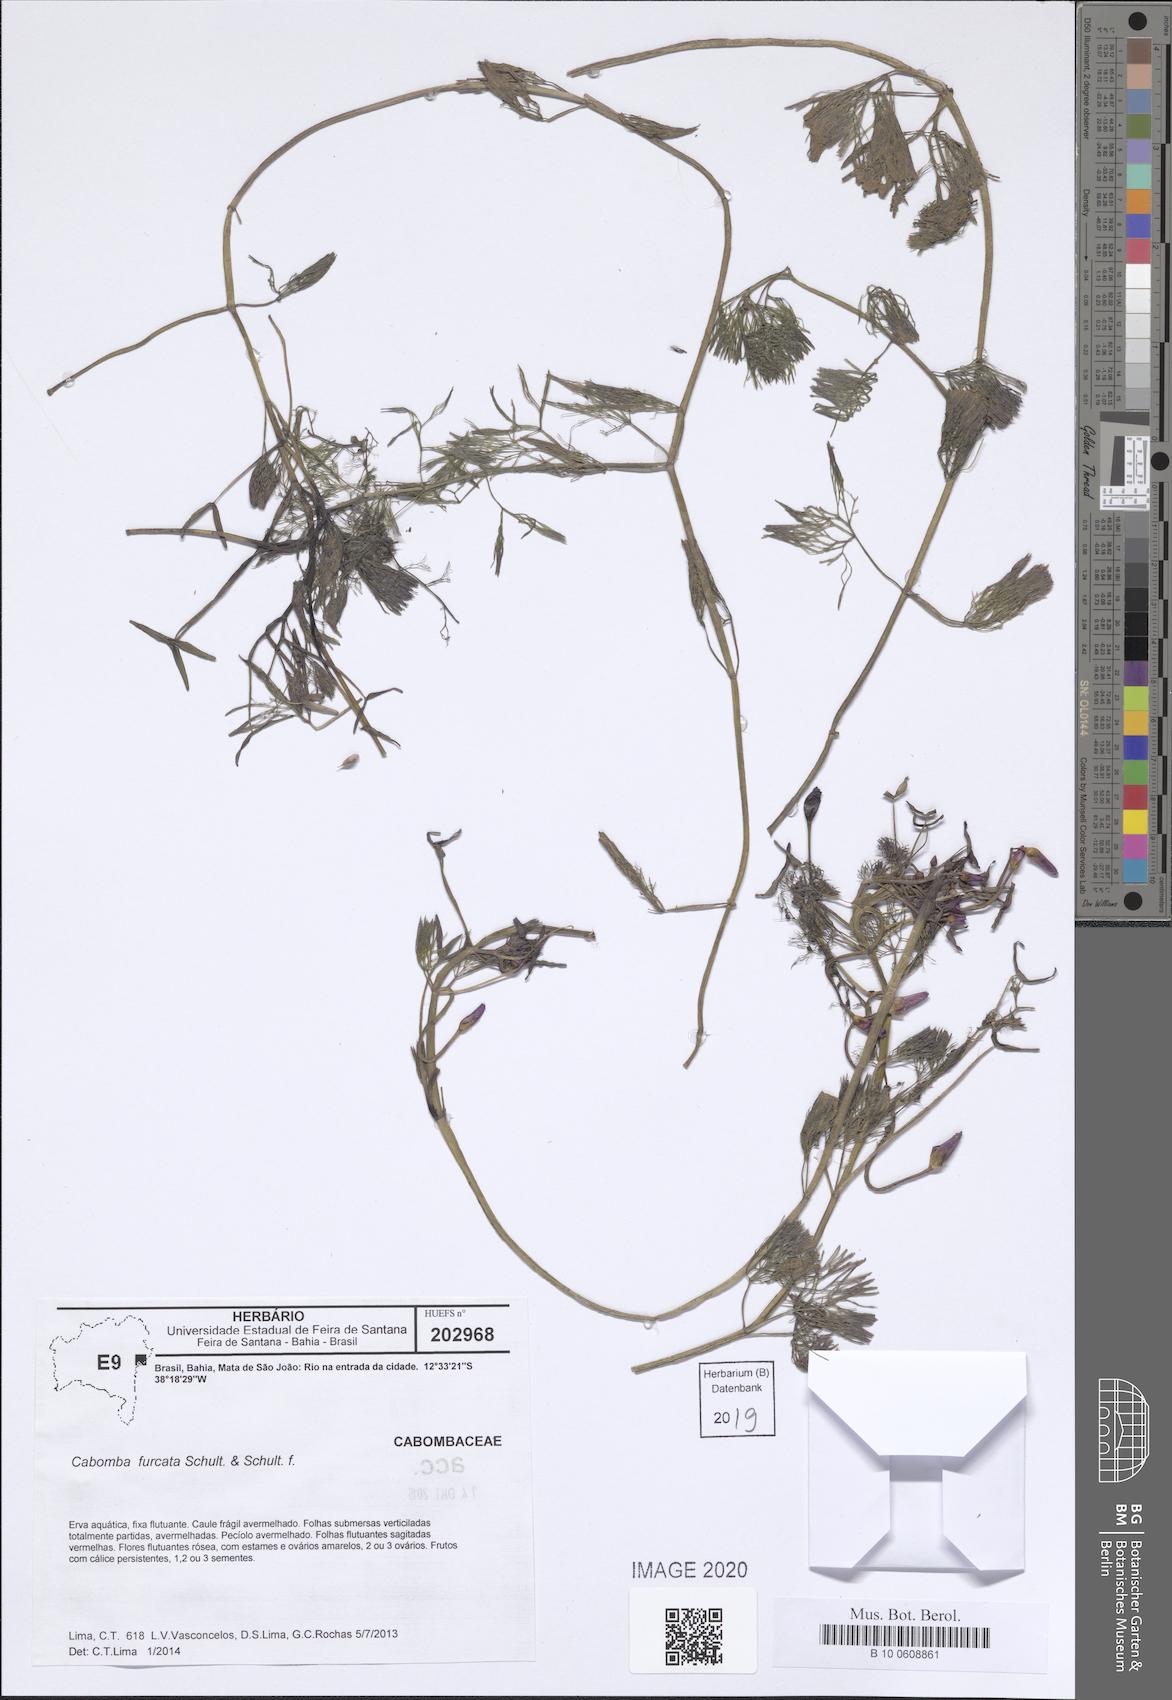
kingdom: Plantae
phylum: Tracheophyta
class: Magnoliopsida
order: Nymphaeales
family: Cabombaceae
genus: Cabomba
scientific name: Cabomba furcata
